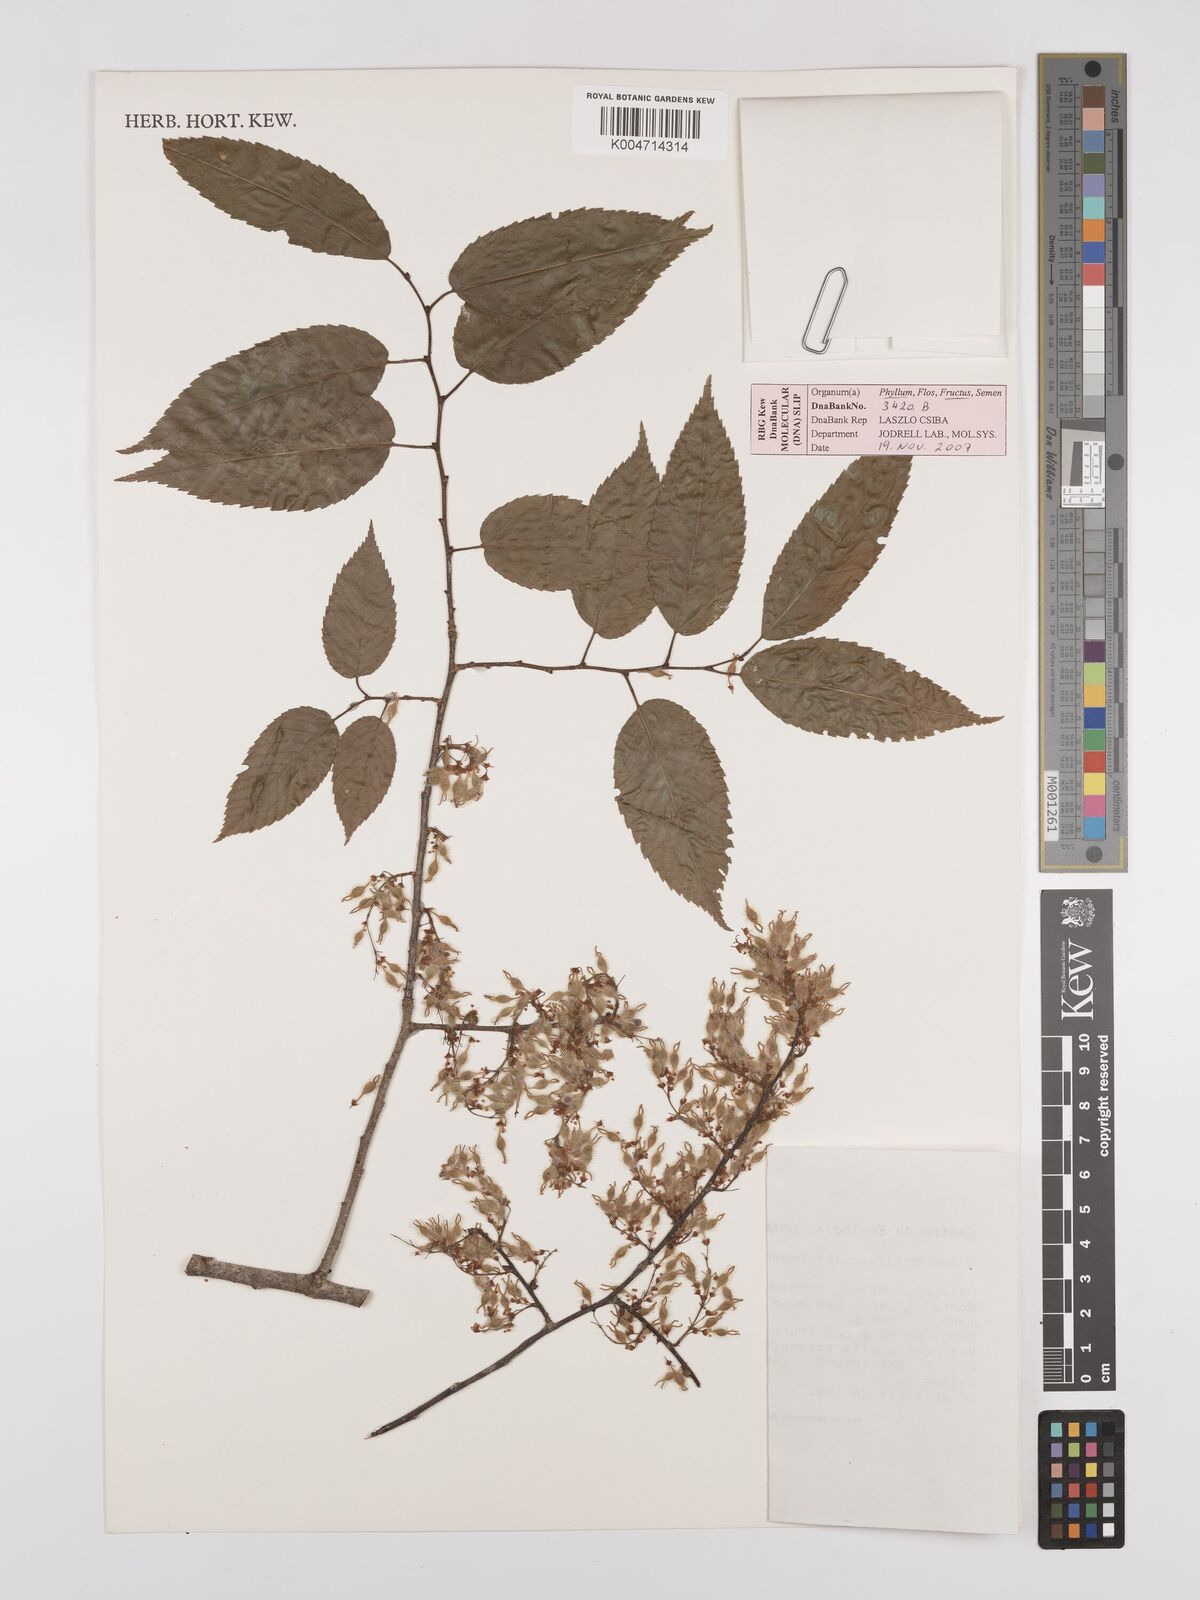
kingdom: Plantae
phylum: Tracheophyta
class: Magnoliopsida
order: Rosales
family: Ulmaceae
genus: Ulmus
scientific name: Ulmus mexicana
